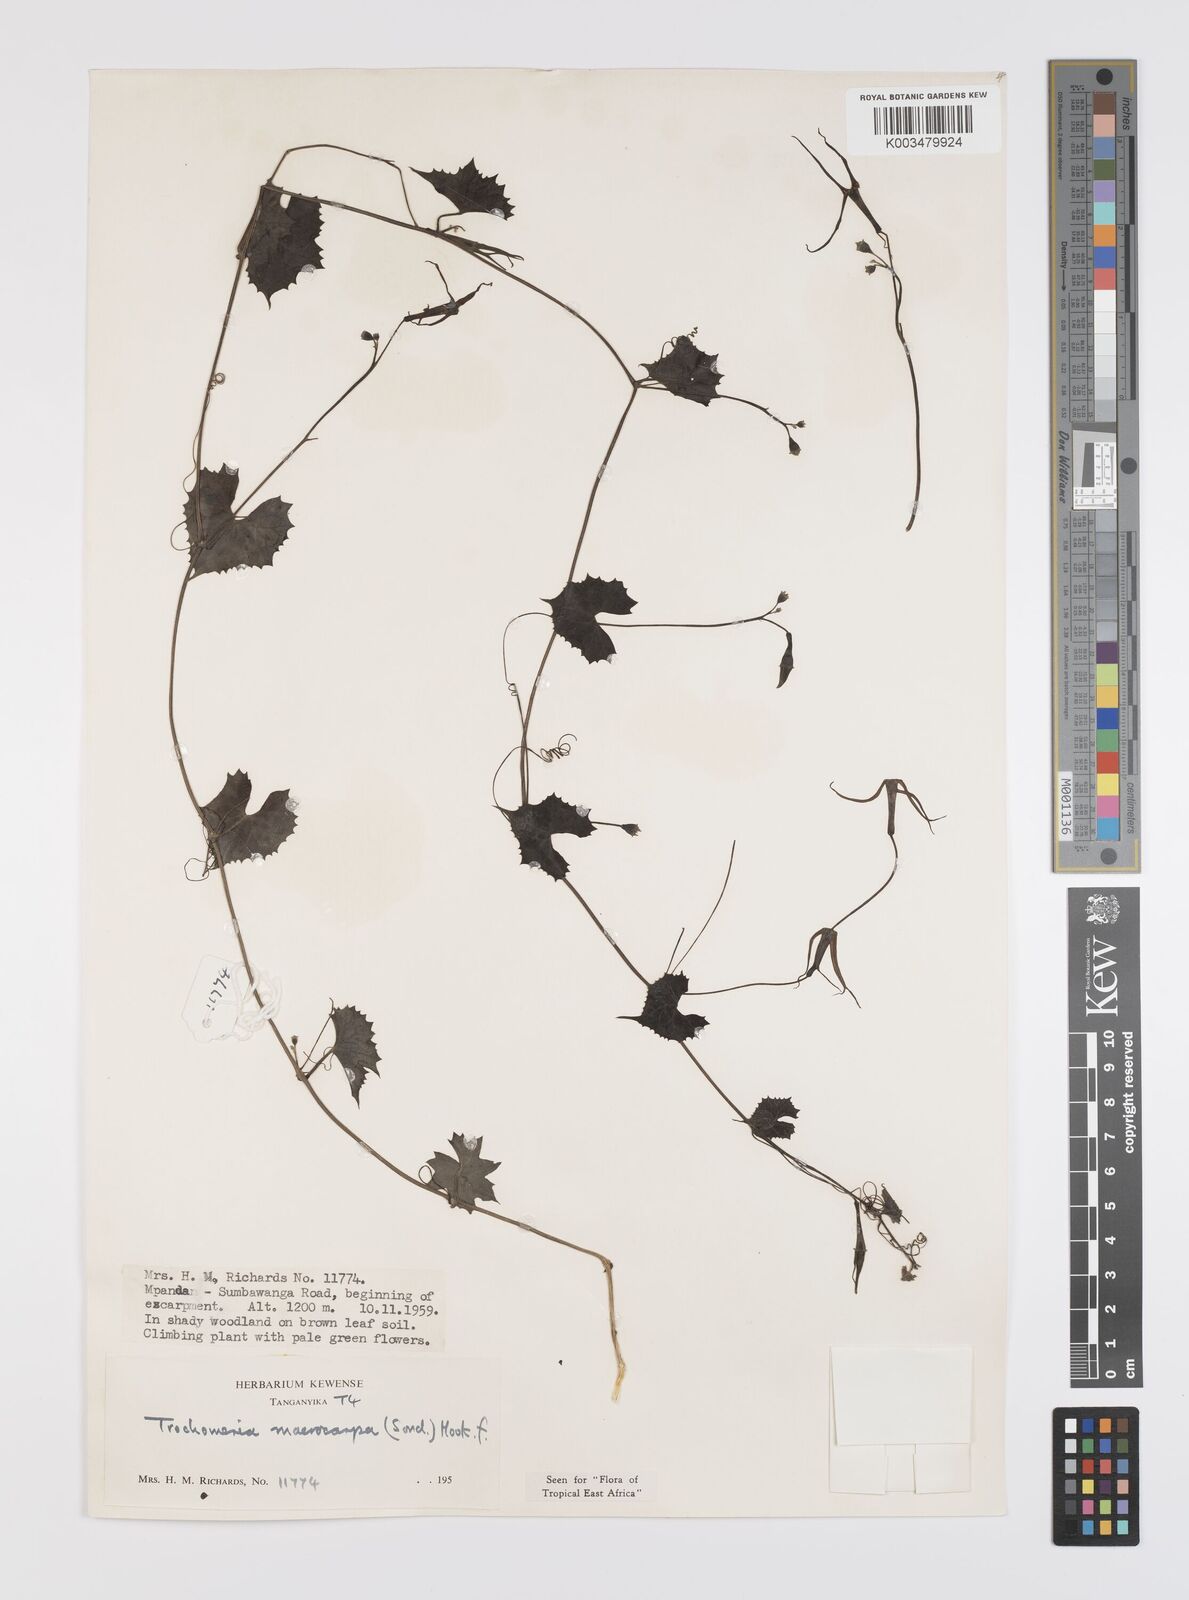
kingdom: Plantae
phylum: Tracheophyta
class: Magnoliopsida
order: Cucurbitales
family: Cucurbitaceae
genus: Trochomeria
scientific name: Trochomeria macrocarpa
